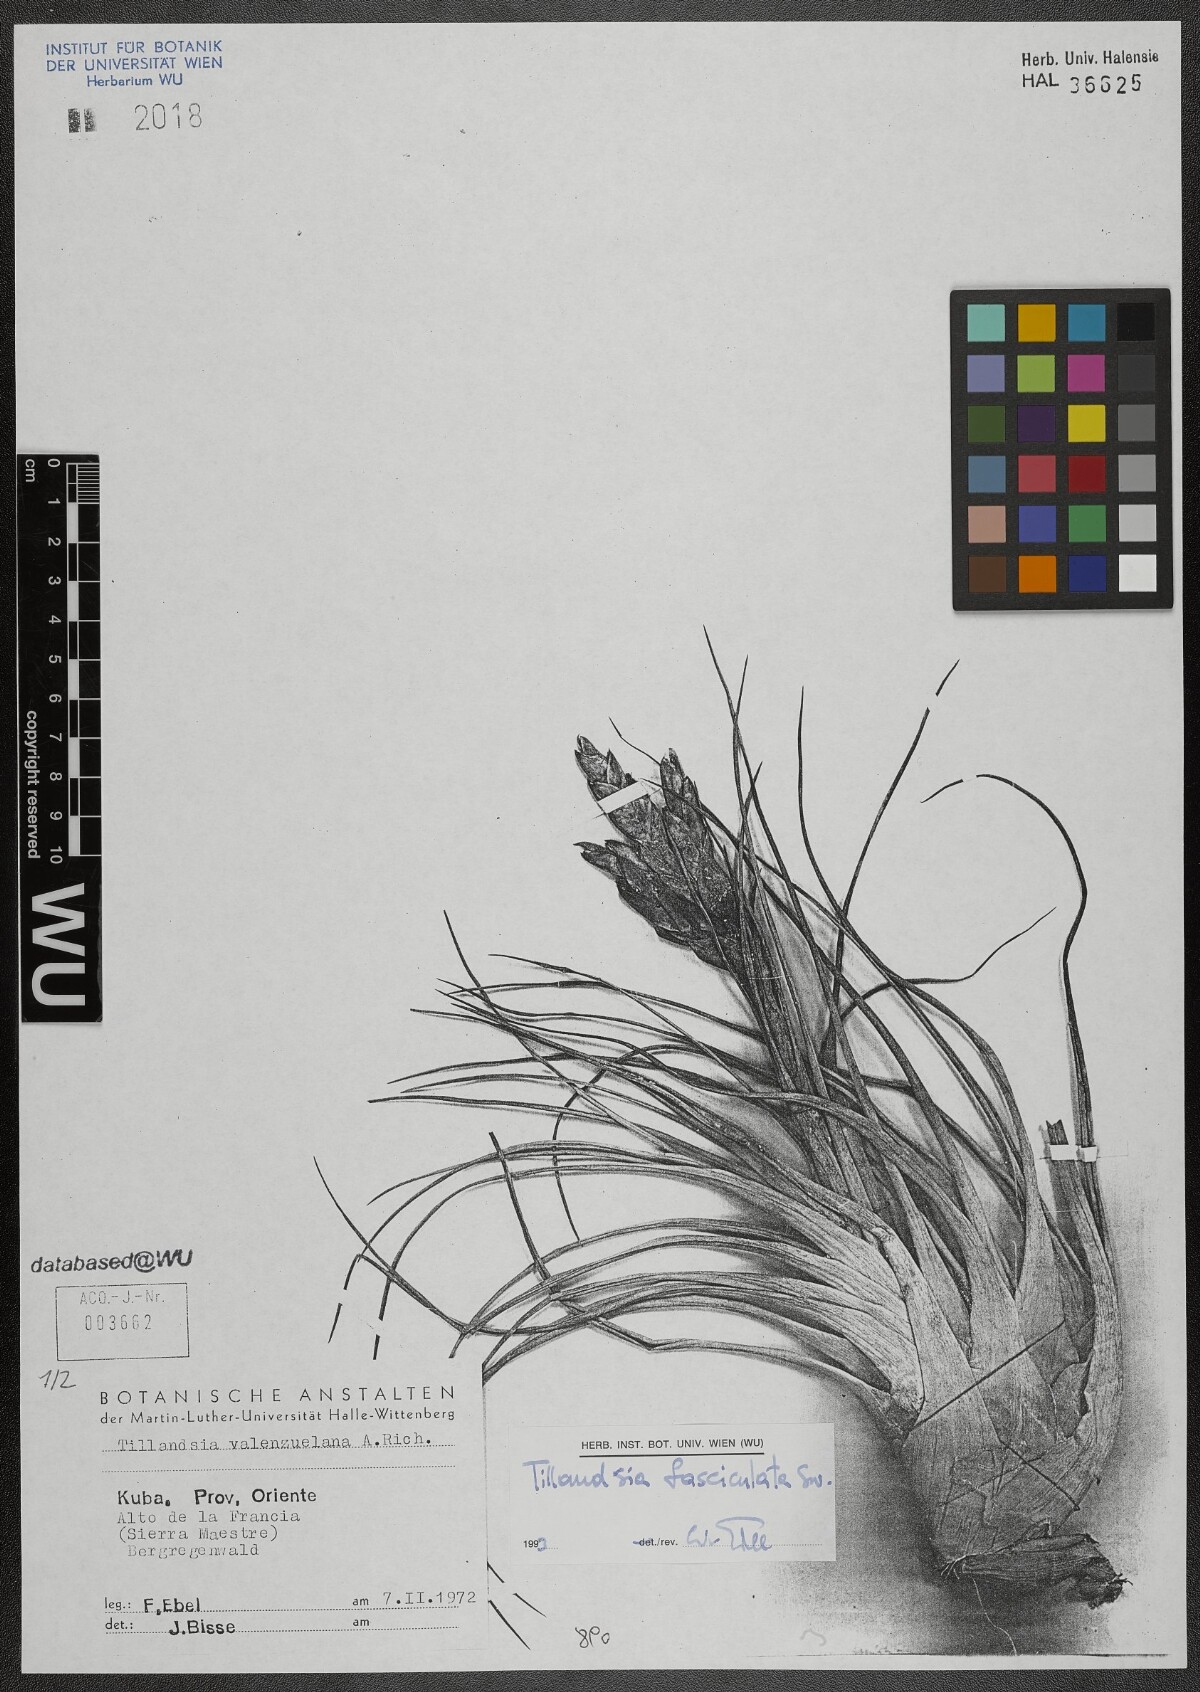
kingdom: Plantae
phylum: Tracheophyta
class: Liliopsida
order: Poales
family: Bromeliaceae
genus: Tillandsia
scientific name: Tillandsia fasciculata
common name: Giant airplant
